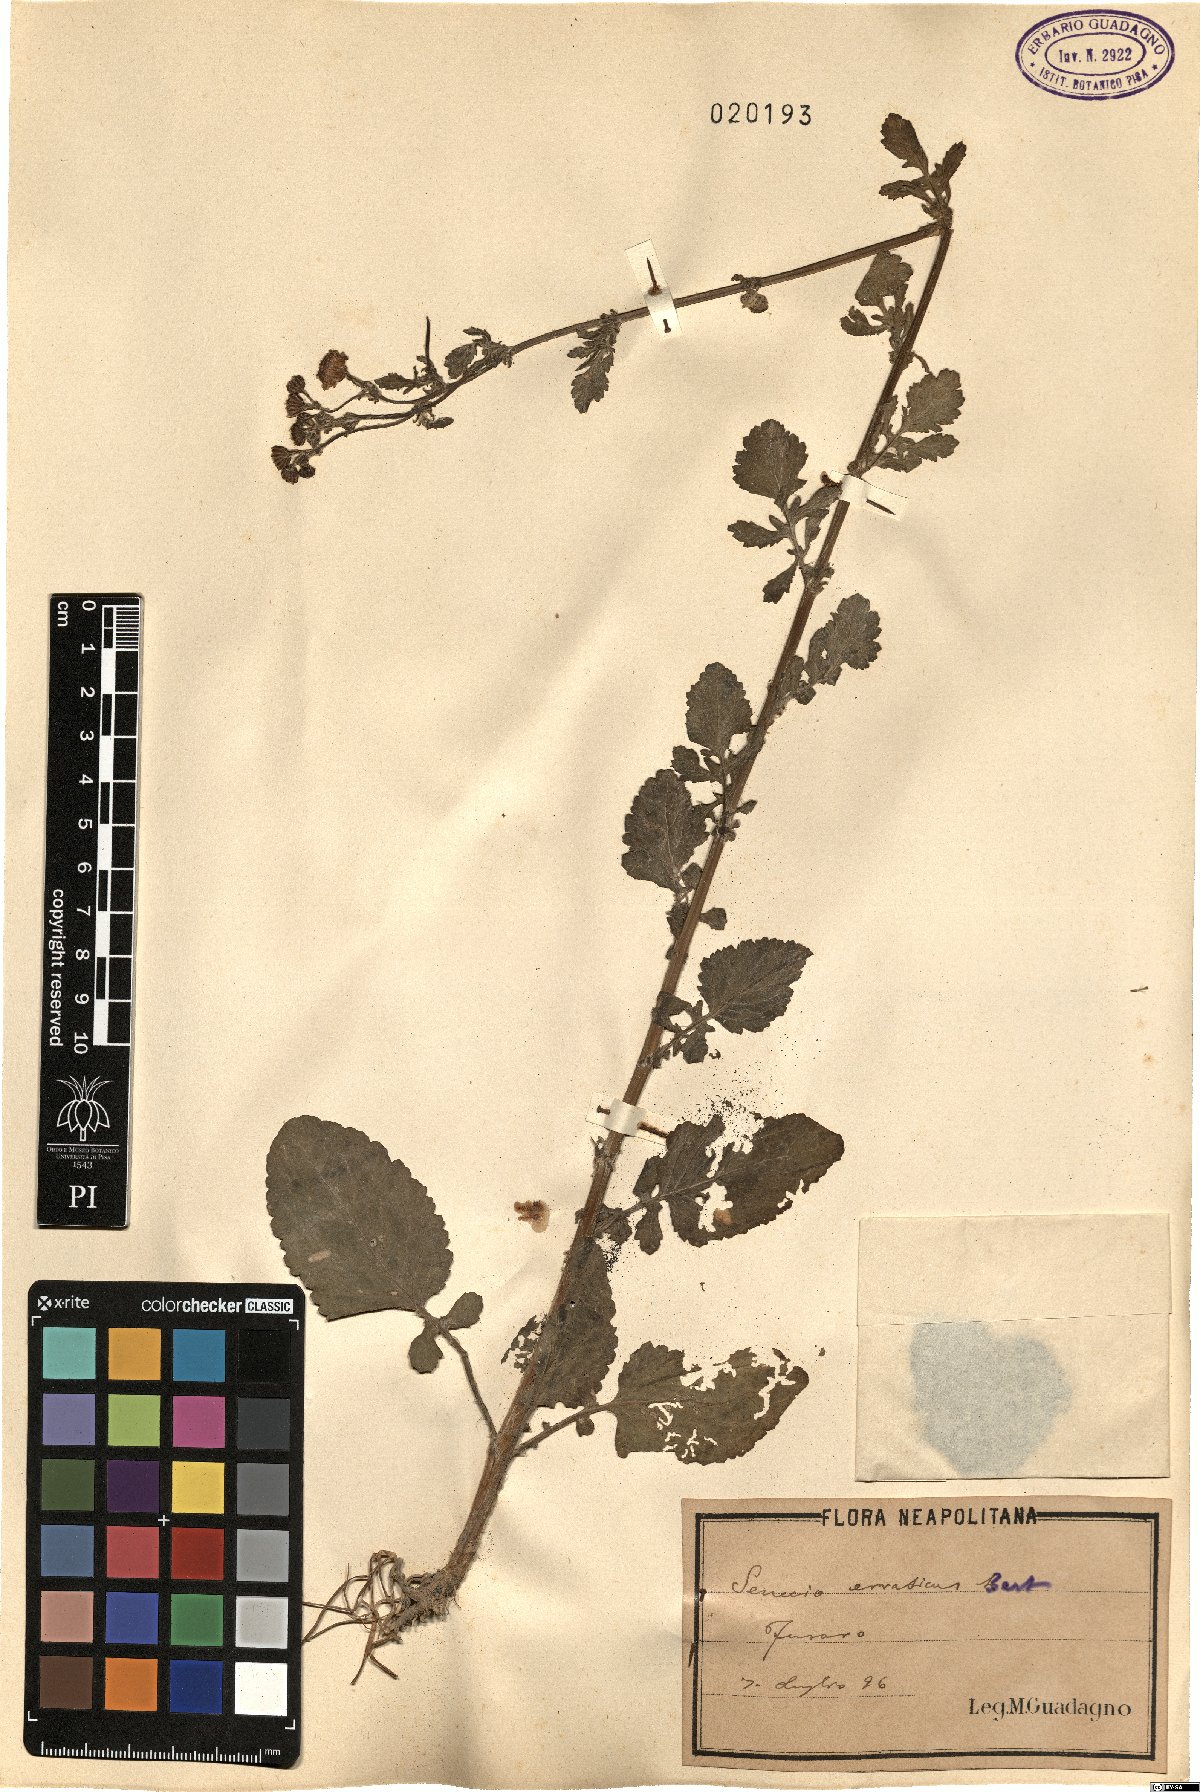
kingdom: Plantae
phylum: Tracheophyta
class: Magnoliopsida
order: Asterales
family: Asteraceae
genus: Jacobaea
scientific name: Jacobaea erratica
